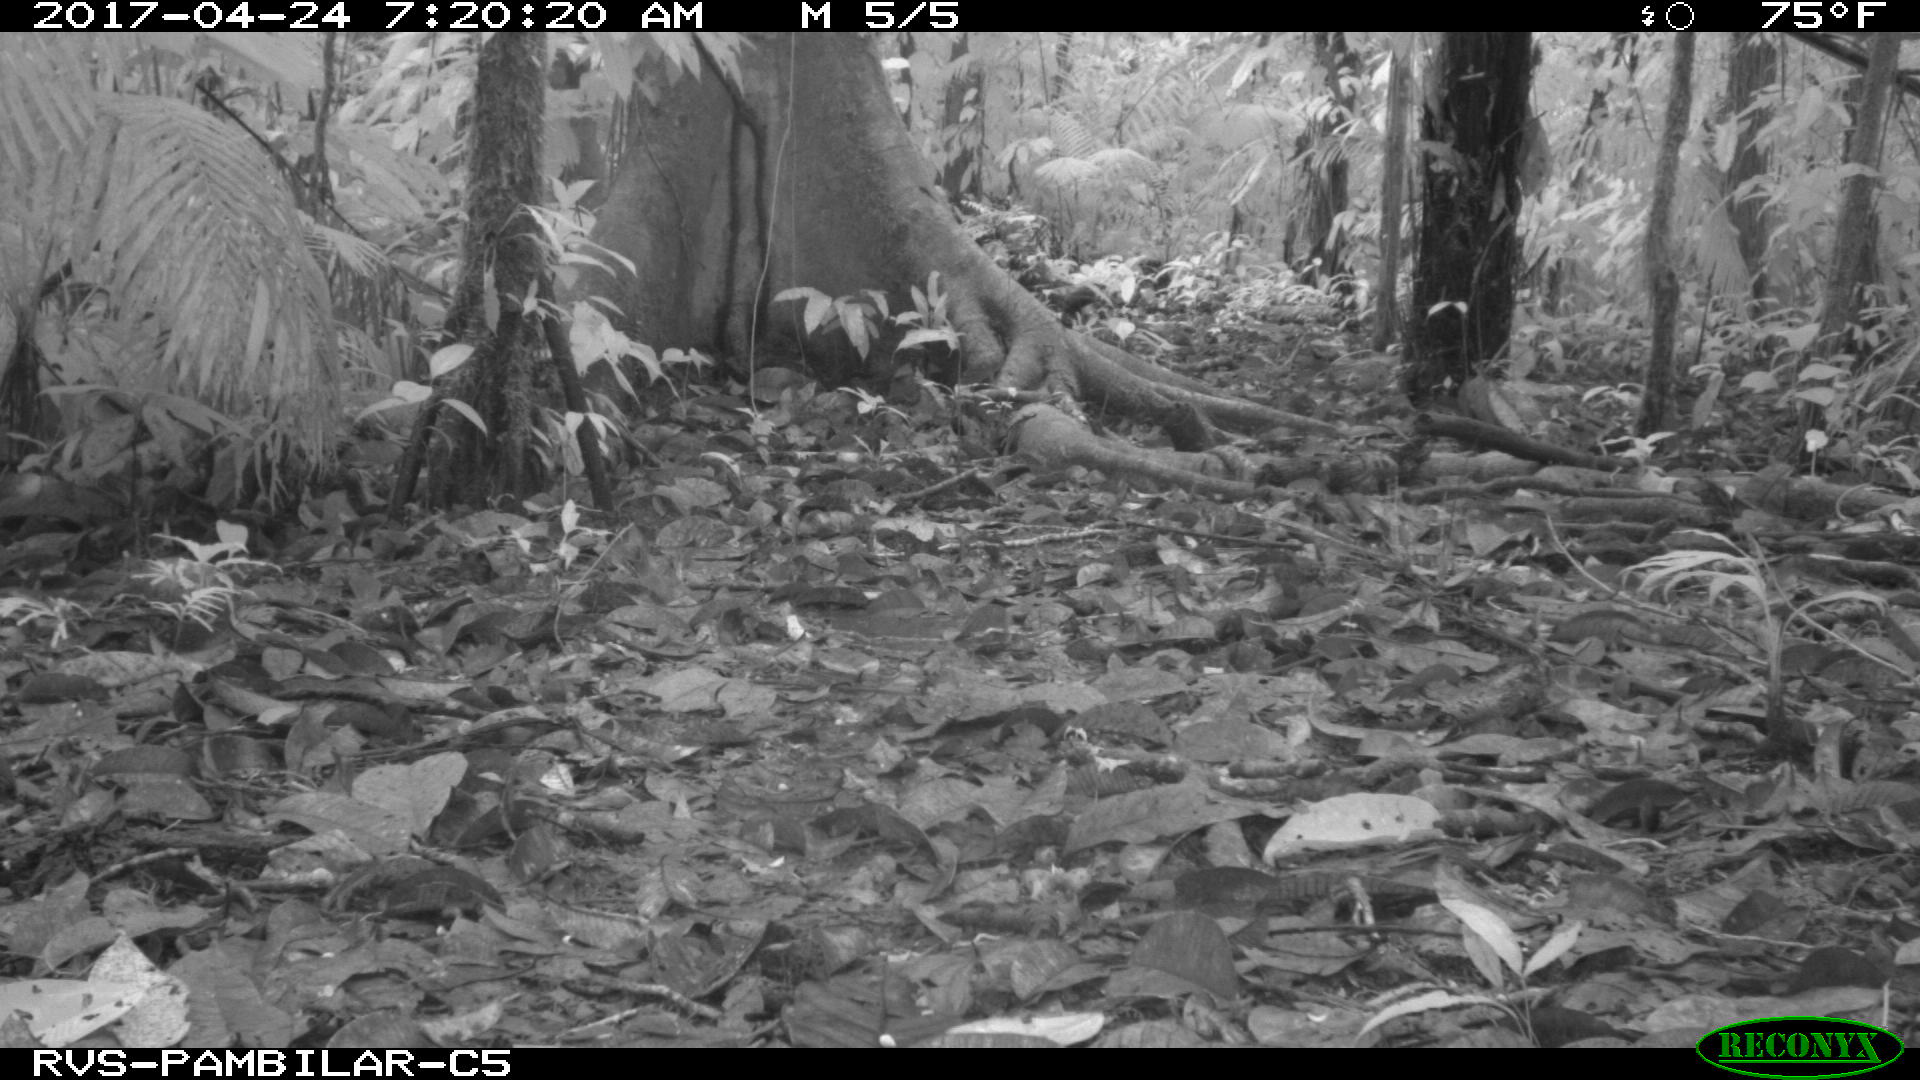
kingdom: Animalia
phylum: Chordata
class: Mammalia
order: Artiodactyla
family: Tayassuidae
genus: Tayassu
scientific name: Tayassu pecari
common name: White-lipped peccary
